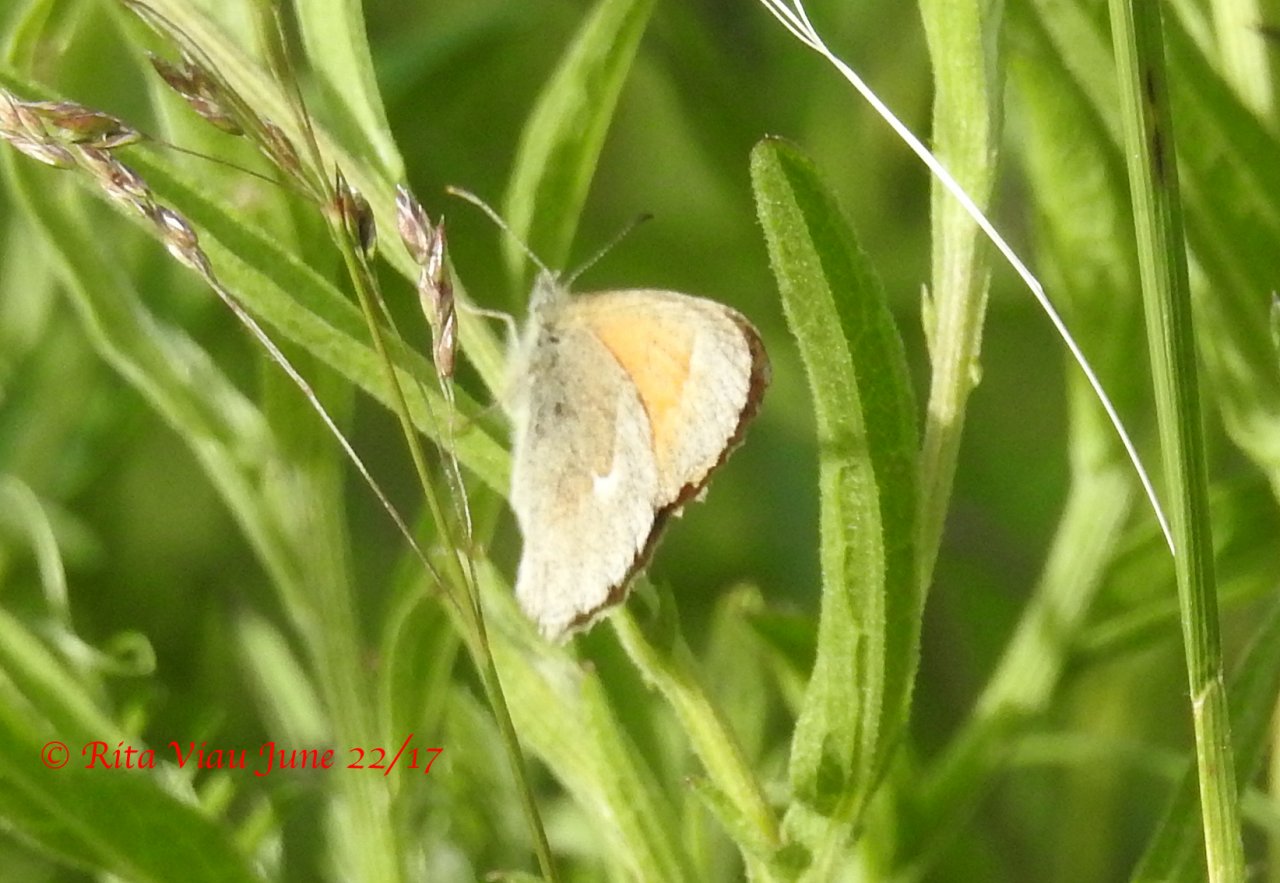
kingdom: Animalia
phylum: Arthropoda
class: Insecta
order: Lepidoptera
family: Nymphalidae
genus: Coenonympha
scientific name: Coenonympha tullia
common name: Large Heath
